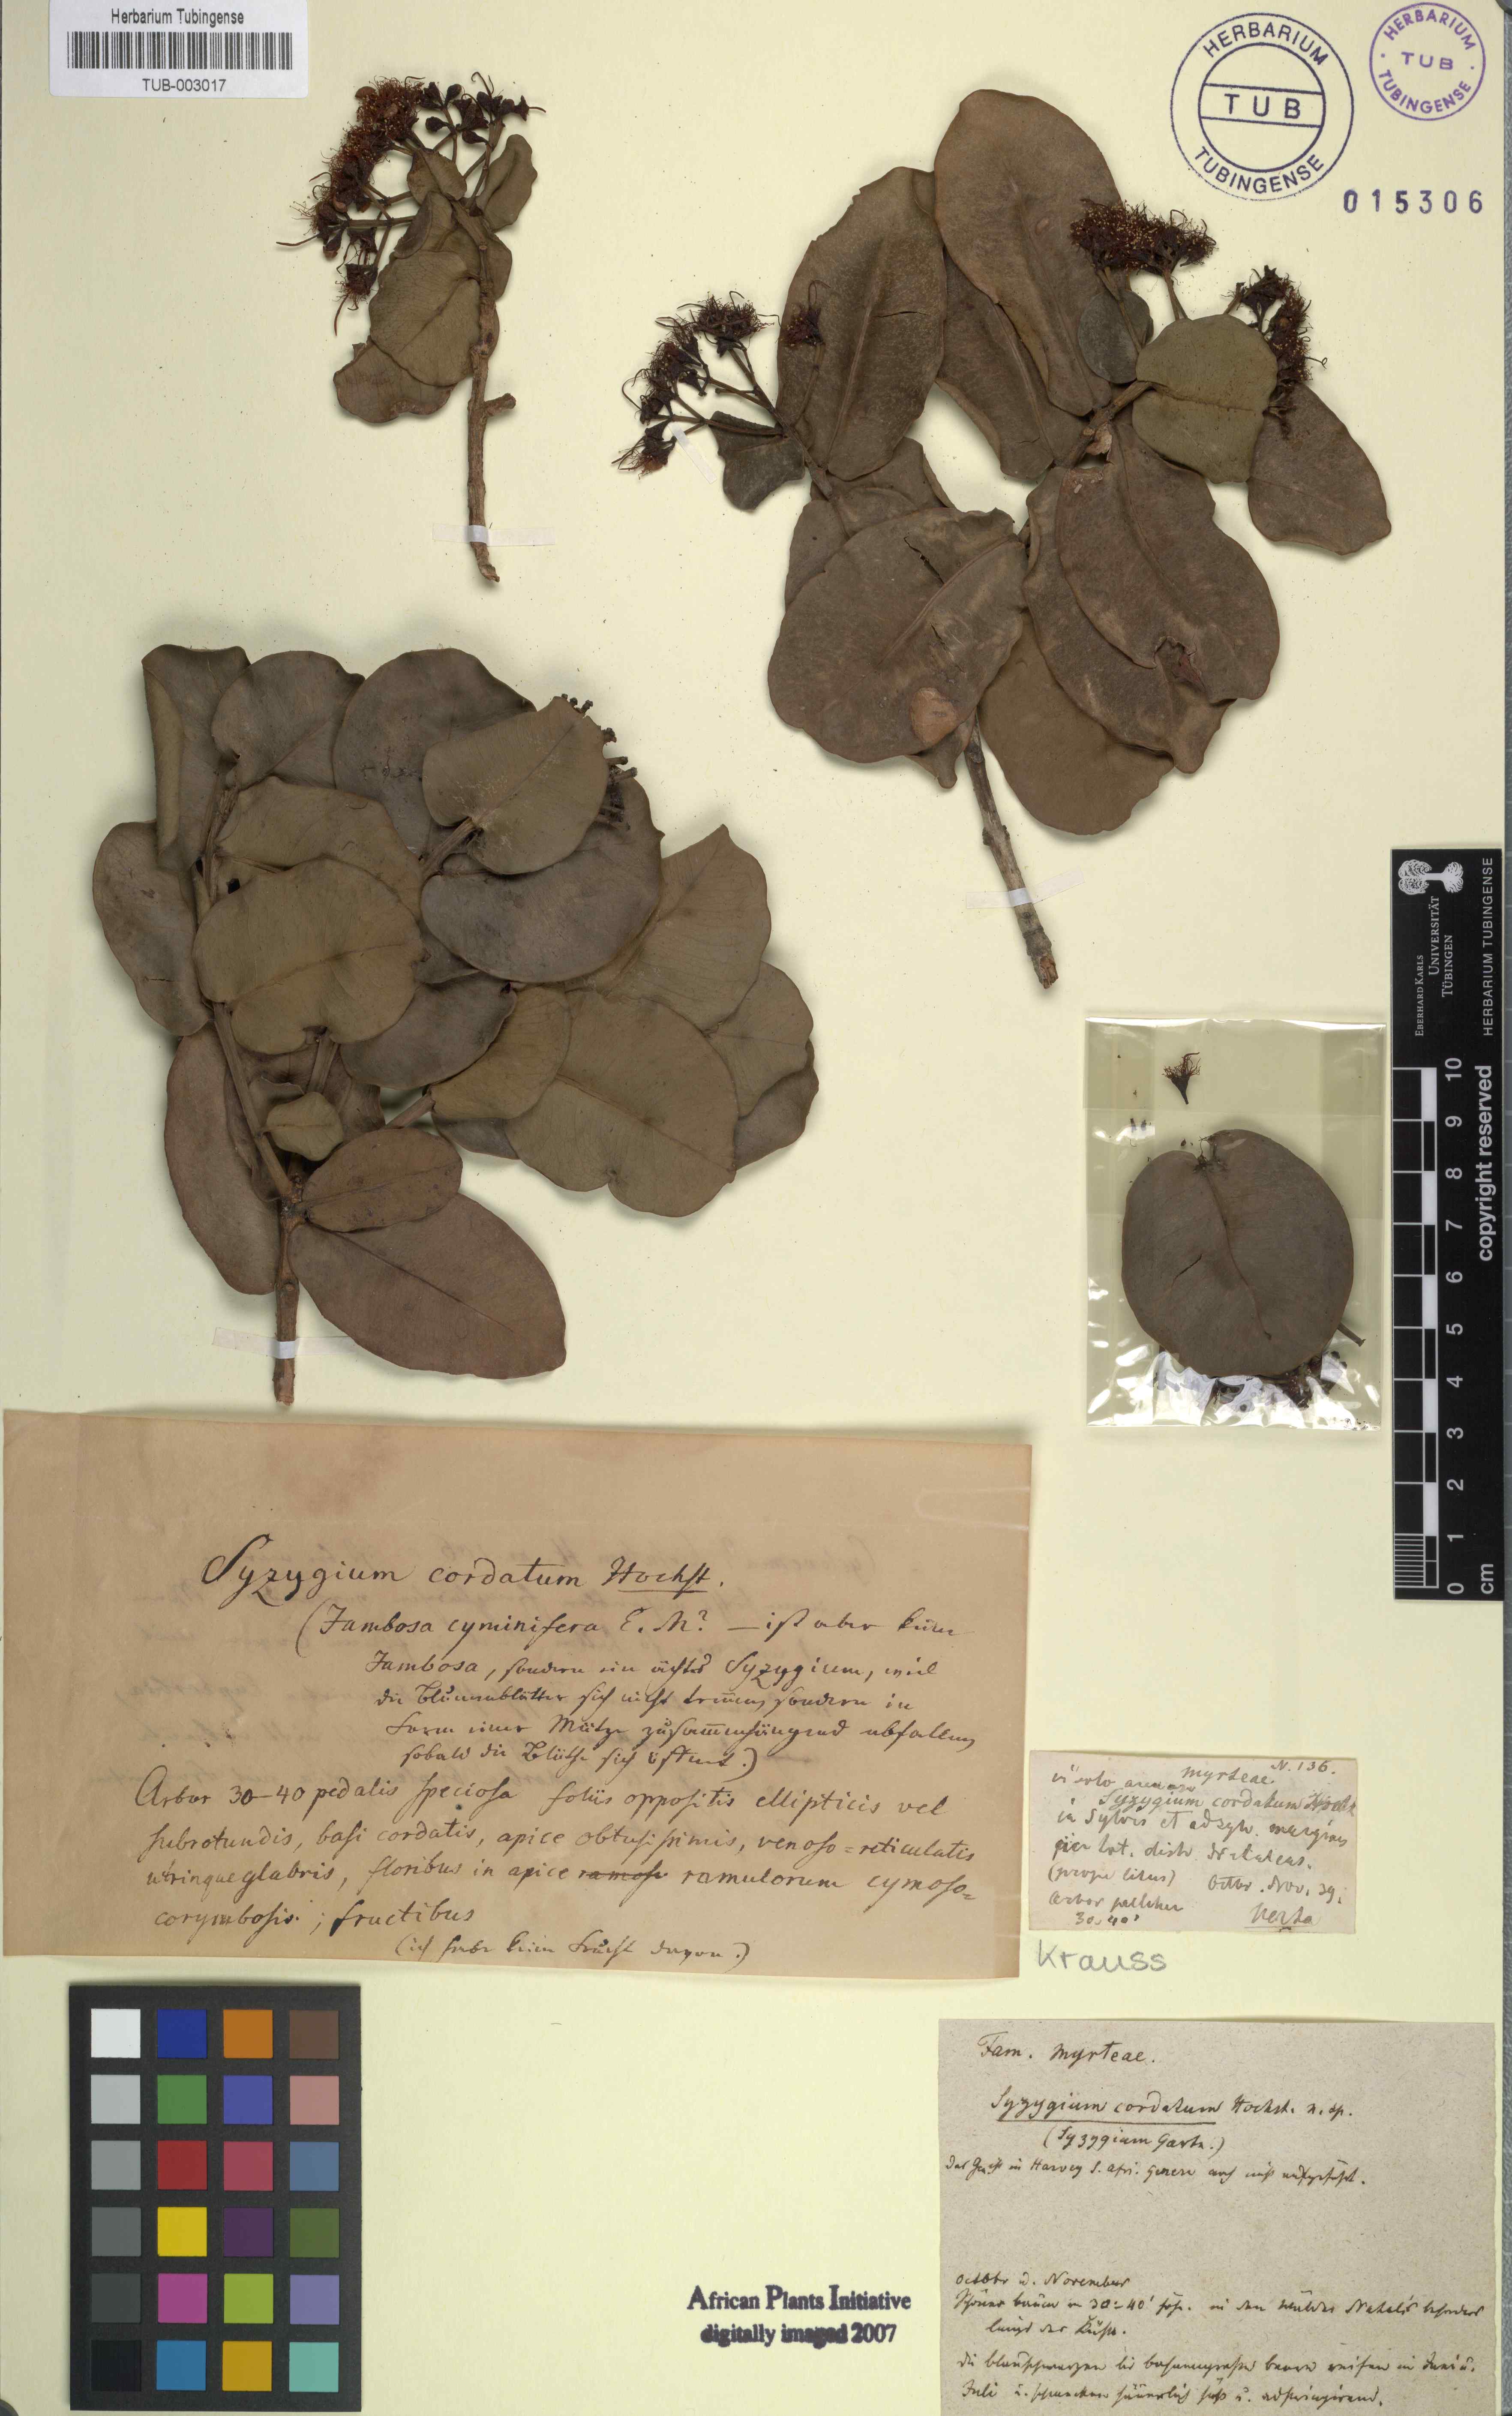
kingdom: Plantae
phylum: Tracheophyta
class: Magnoliopsida
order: Myrtales
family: Myrtaceae
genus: Syzygium
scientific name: Syzygium cordatum
